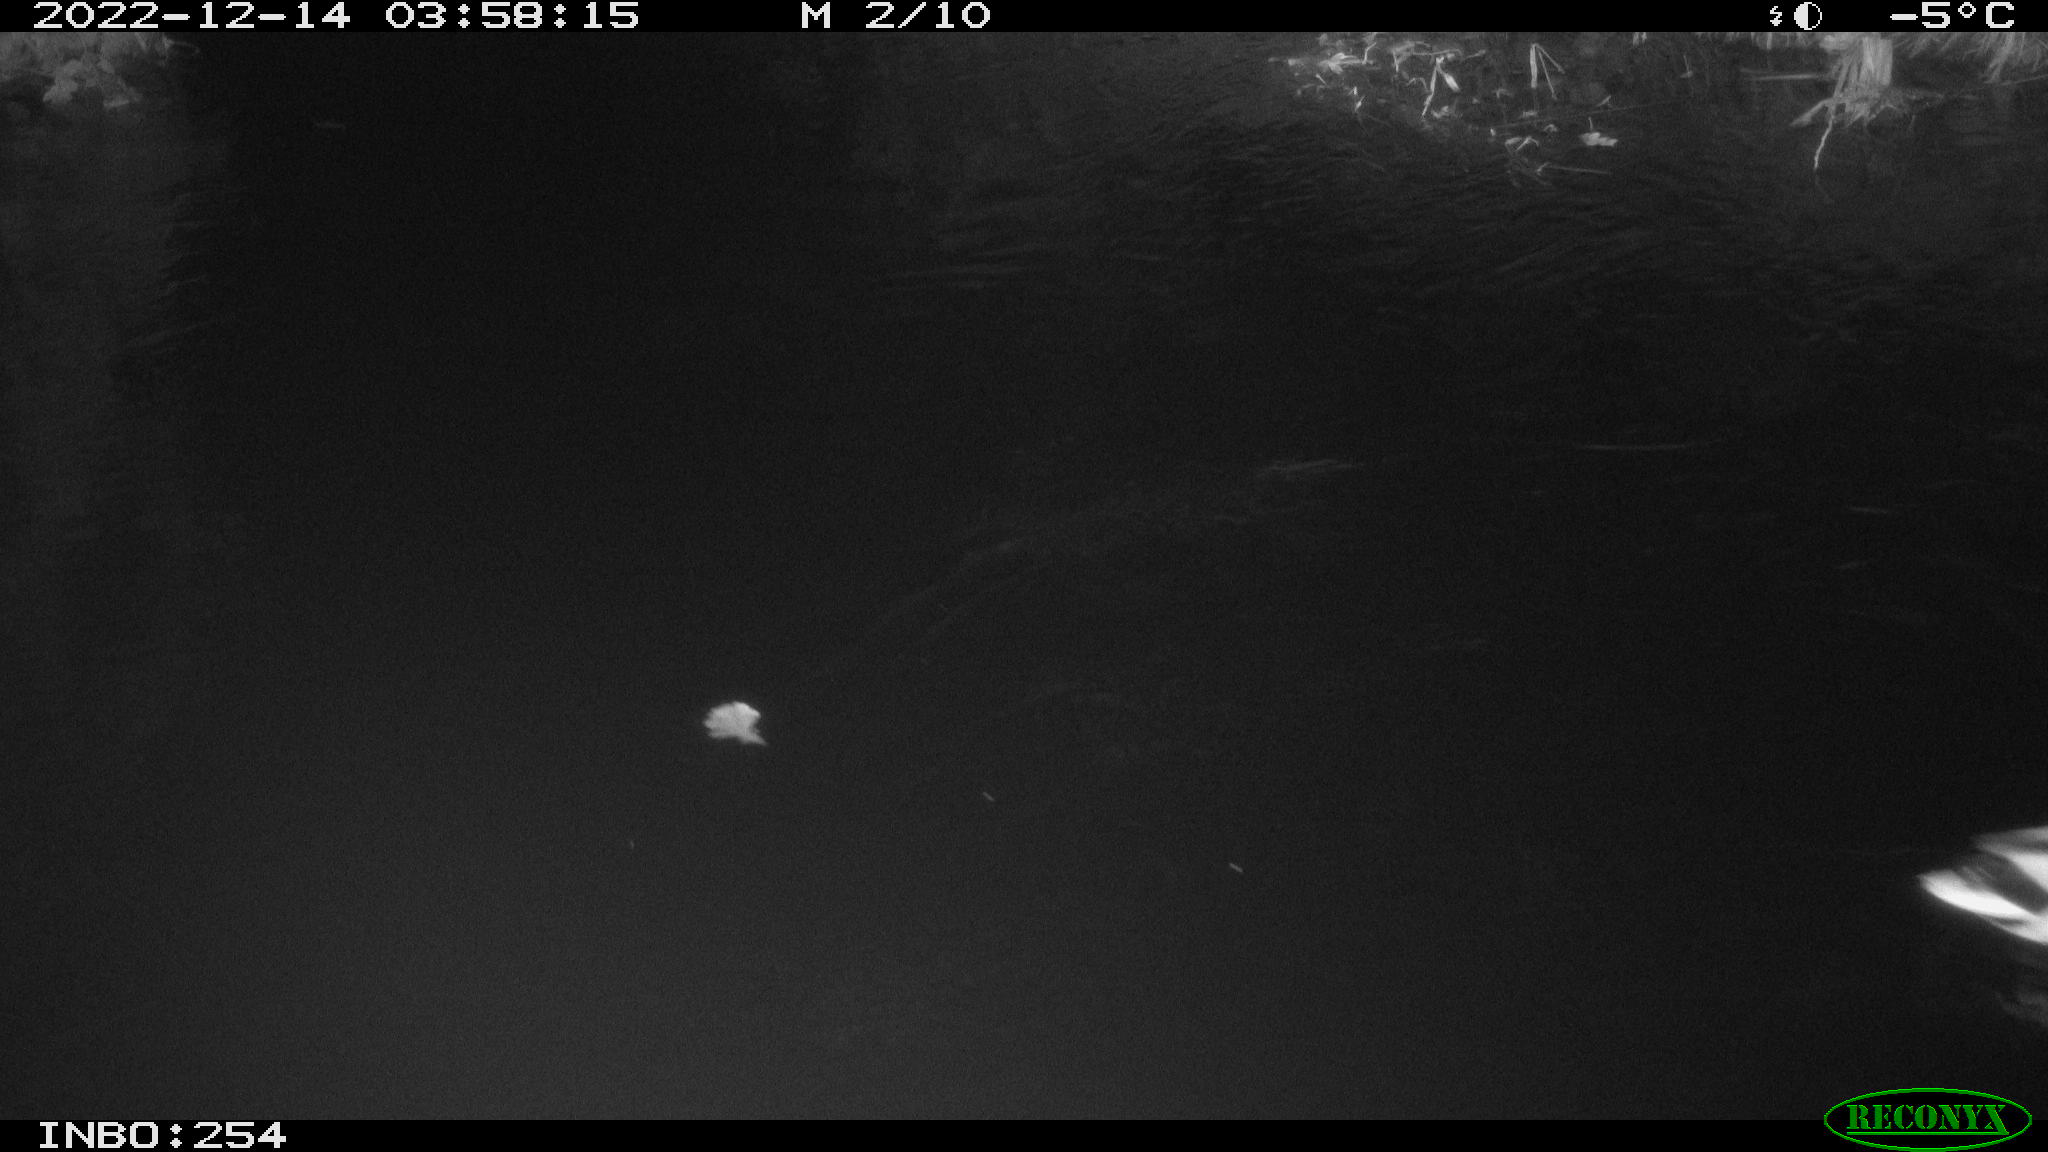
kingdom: Animalia
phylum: Chordata
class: Aves
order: Anseriformes
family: Anatidae
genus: Anas
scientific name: Anas
